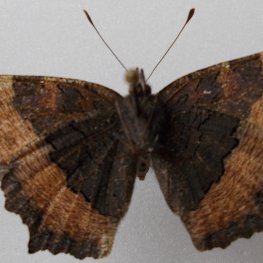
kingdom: Animalia
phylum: Arthropoda
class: Insecta
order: Lepidoptera
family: Nymphalidae
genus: Aglais
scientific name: Aglais milberti
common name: Milbert's Tortoiseshell
